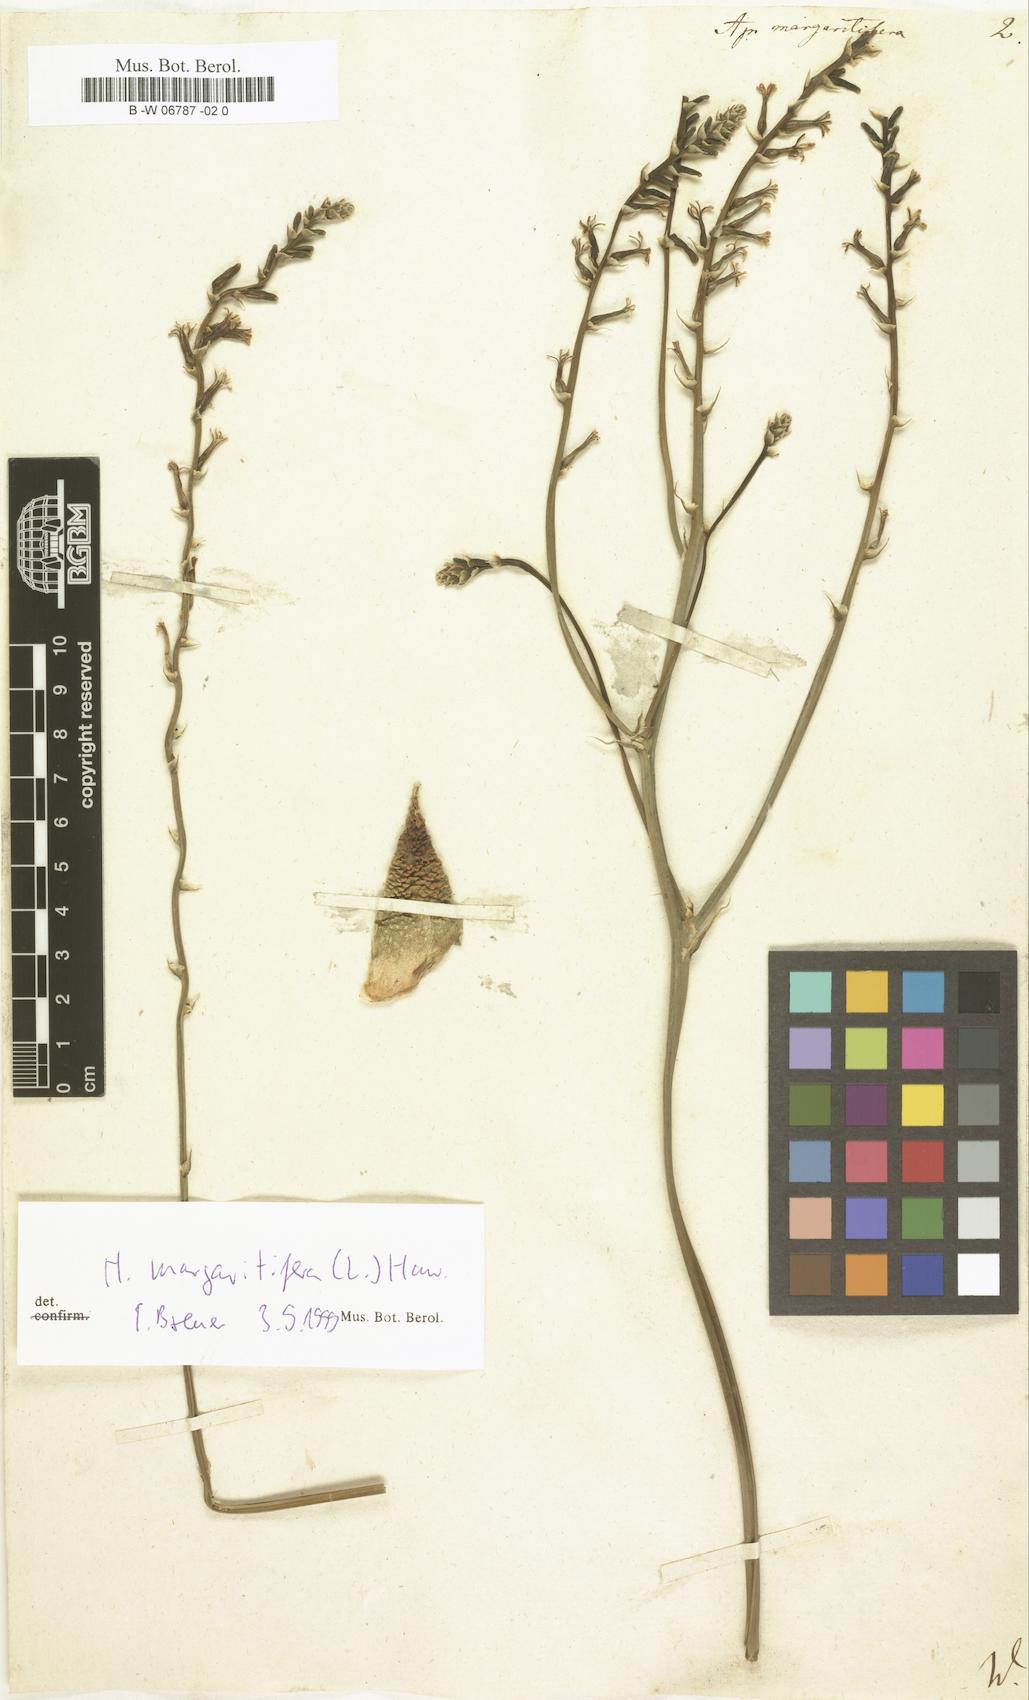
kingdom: Plantae
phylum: Tracheophyta
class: Liliopsida
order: Asparagales
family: Asphodelaceae
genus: Tulista
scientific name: Tulista pumila
